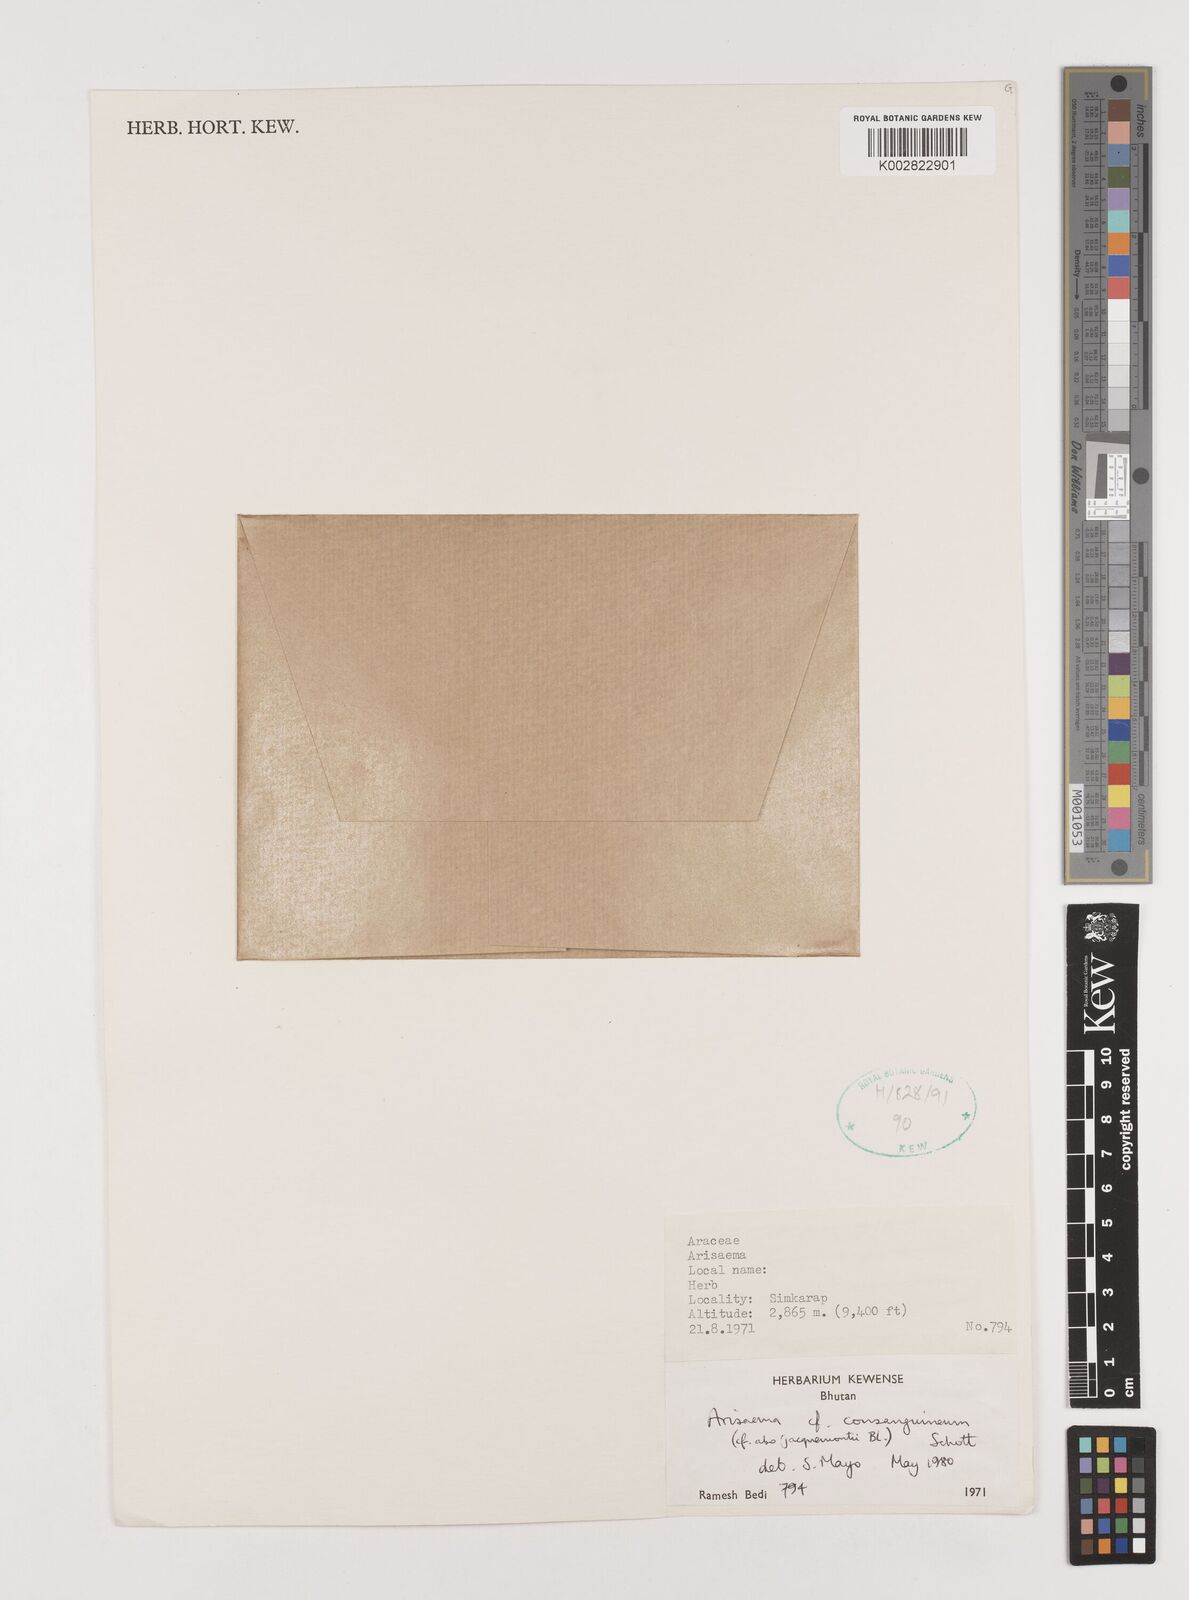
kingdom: Plantae
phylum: Tracheophyta
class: Liliopsida
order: Alismatales
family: Araceae
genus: Arisaema
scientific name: Arisaema erubescens
